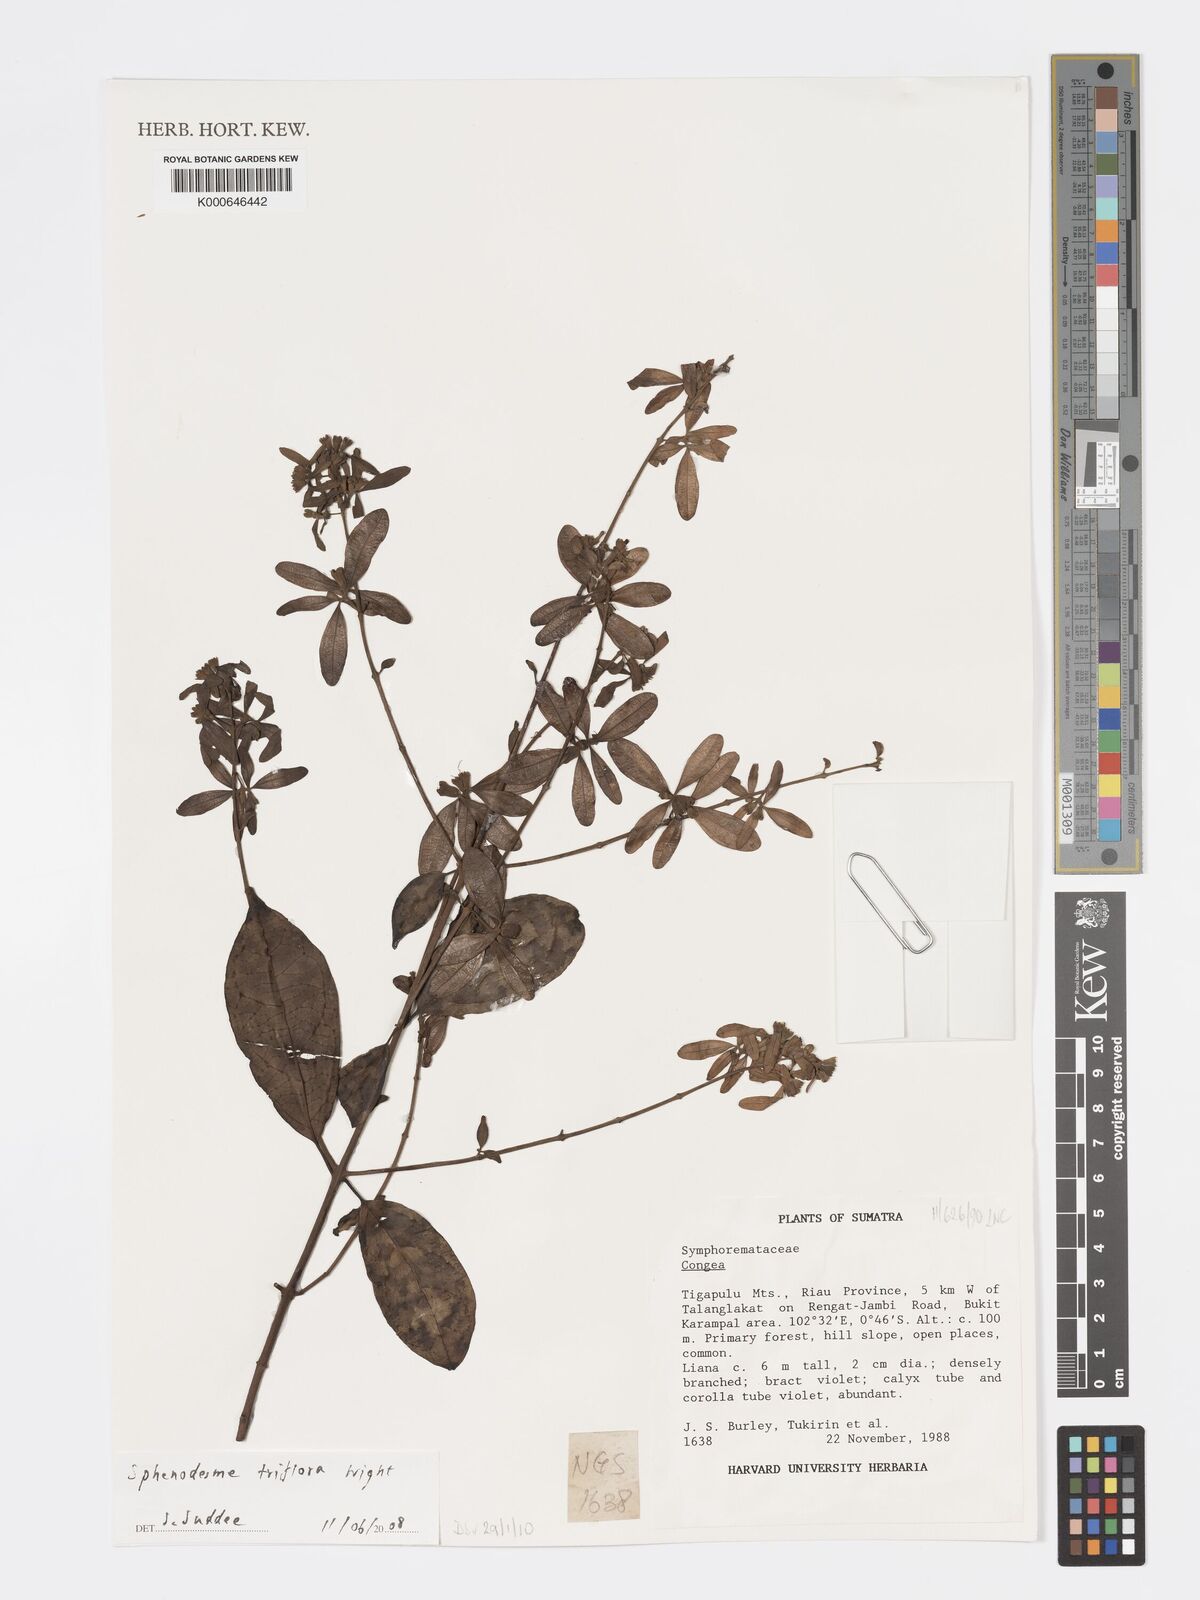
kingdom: Plantae
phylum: Tracheophyta
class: Magnoliopsida
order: Lamiales
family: Lamiaceae
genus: Sphenodesme
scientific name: Sphenodesme triflora
